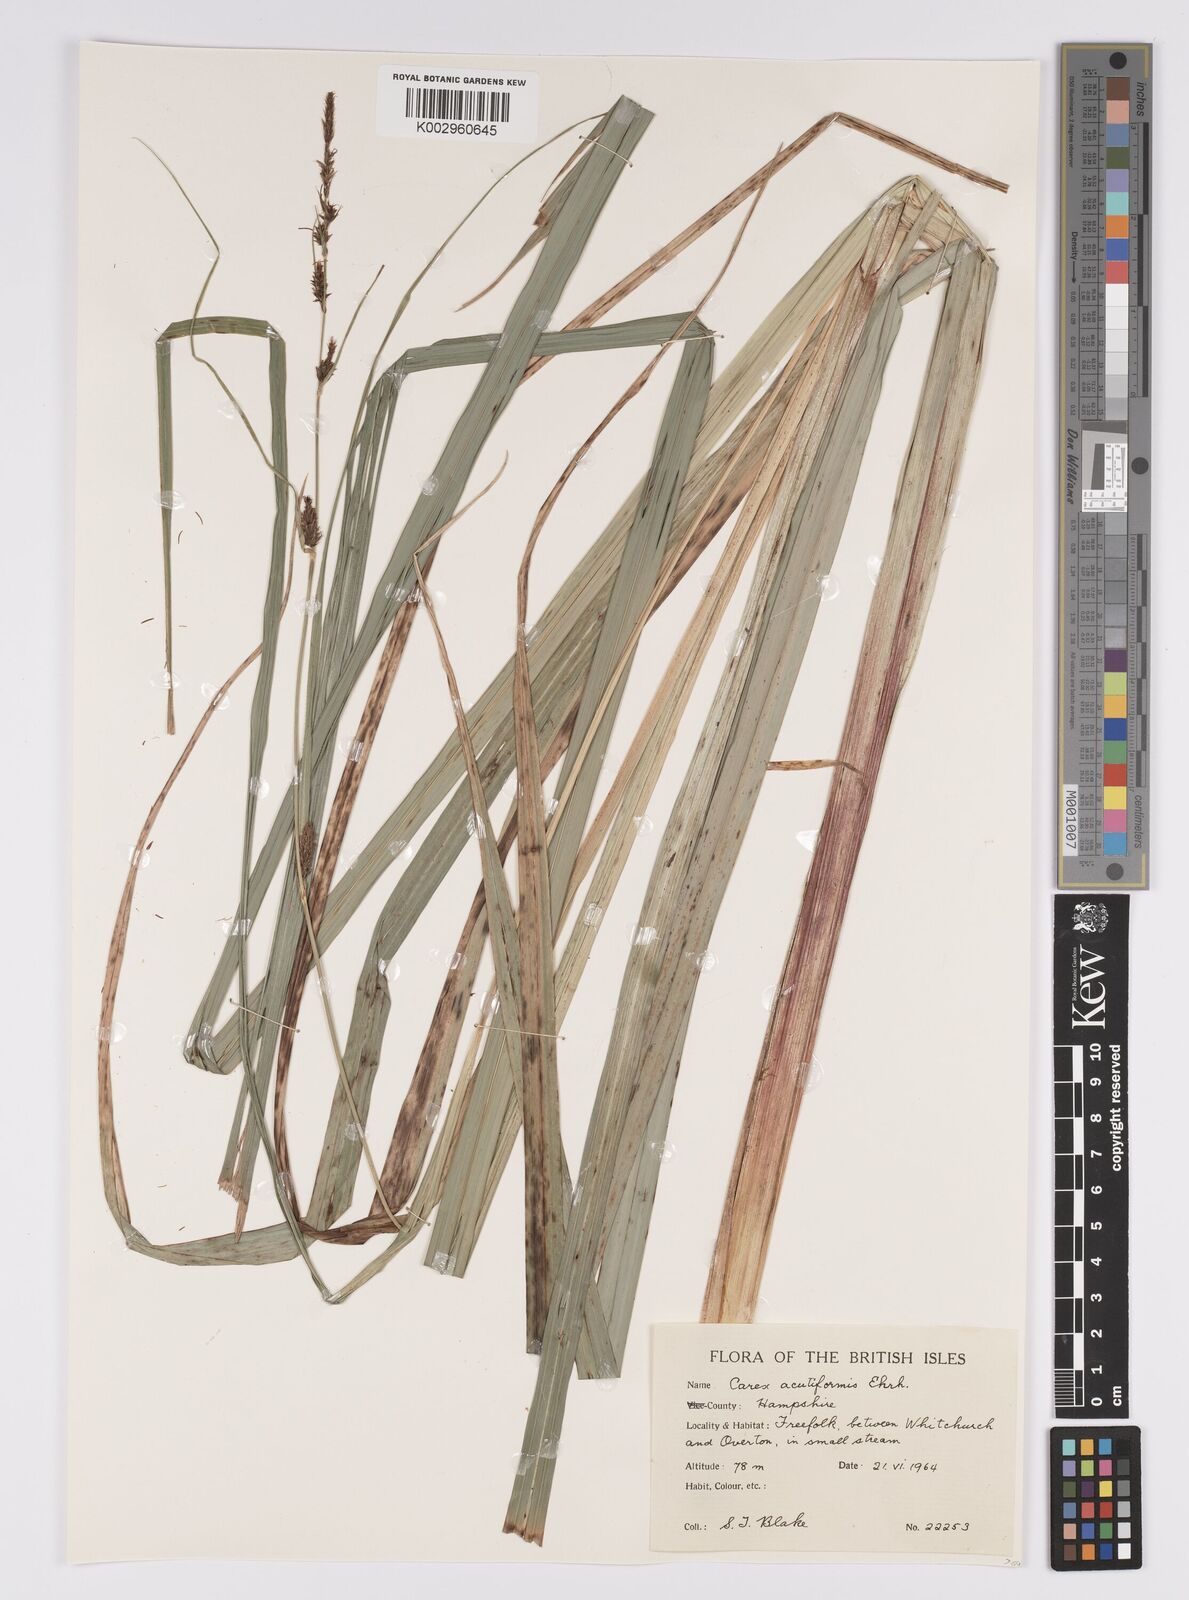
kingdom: Plantae
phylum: Tracheophyta
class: Liliopsida
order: Poales
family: Cyperaceae
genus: Carex
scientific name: Carex acutiformis
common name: Lesser pond-sedge
